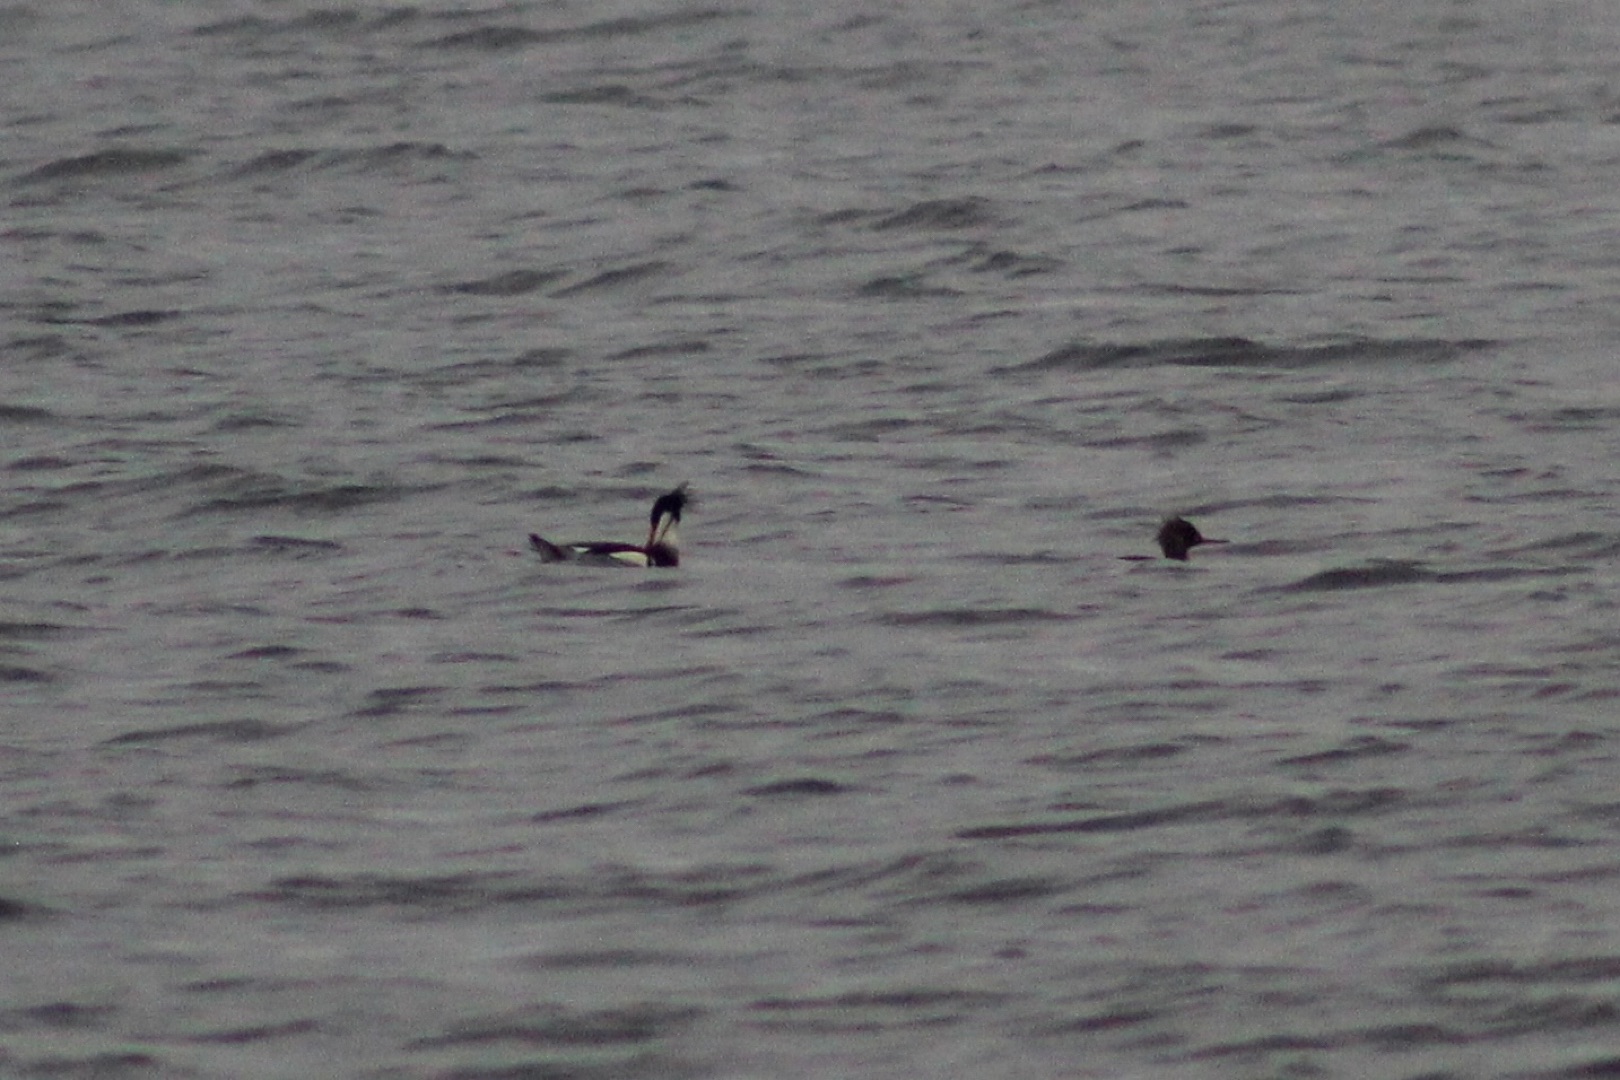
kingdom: Animalia
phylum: Chordata
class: Aves
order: Anseriformes
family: Anatidae
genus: Mergus
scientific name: Mergus serrator
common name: Toppet skallesluger
